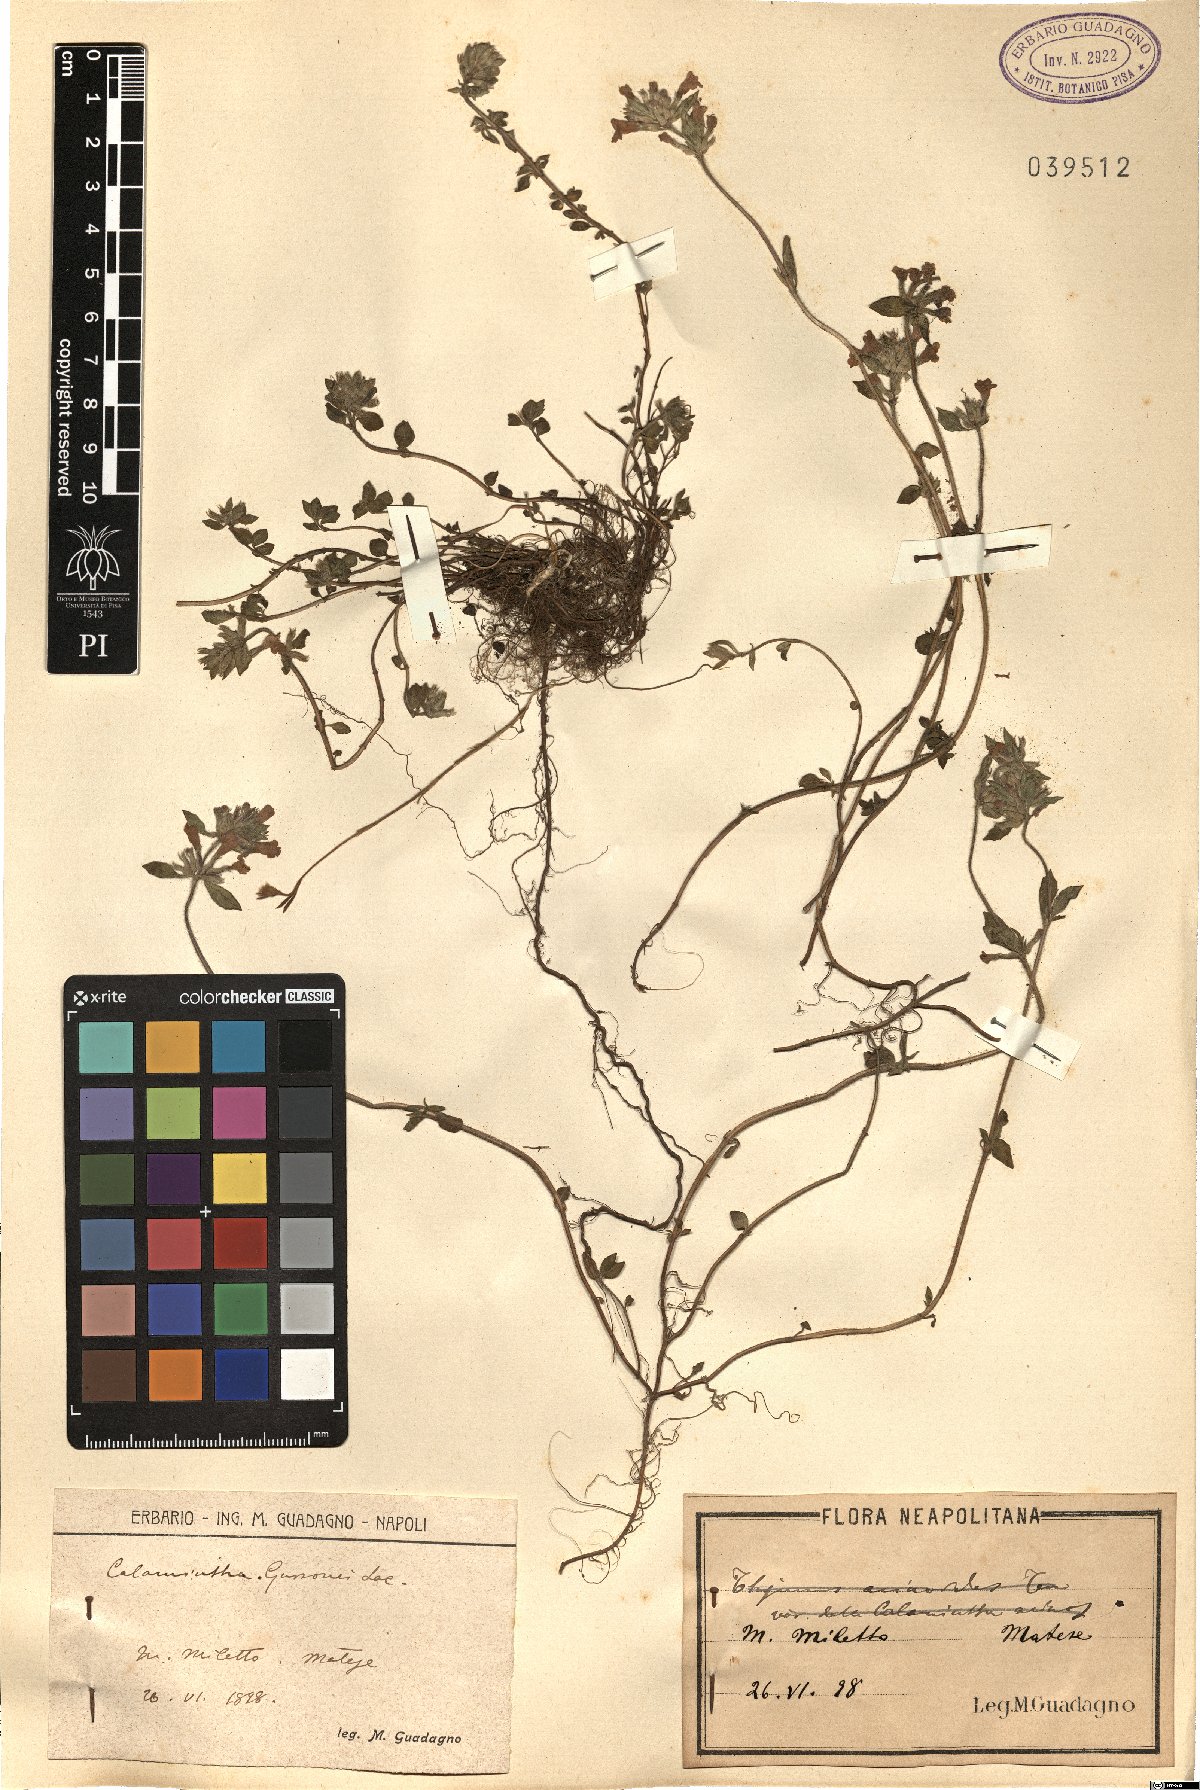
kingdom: Plantae
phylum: Tracheophyta
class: Magnoliopsida
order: Lamiales
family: Lamiaceae
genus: Clinopodium
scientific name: Clinopodium Calamintha gussonei
